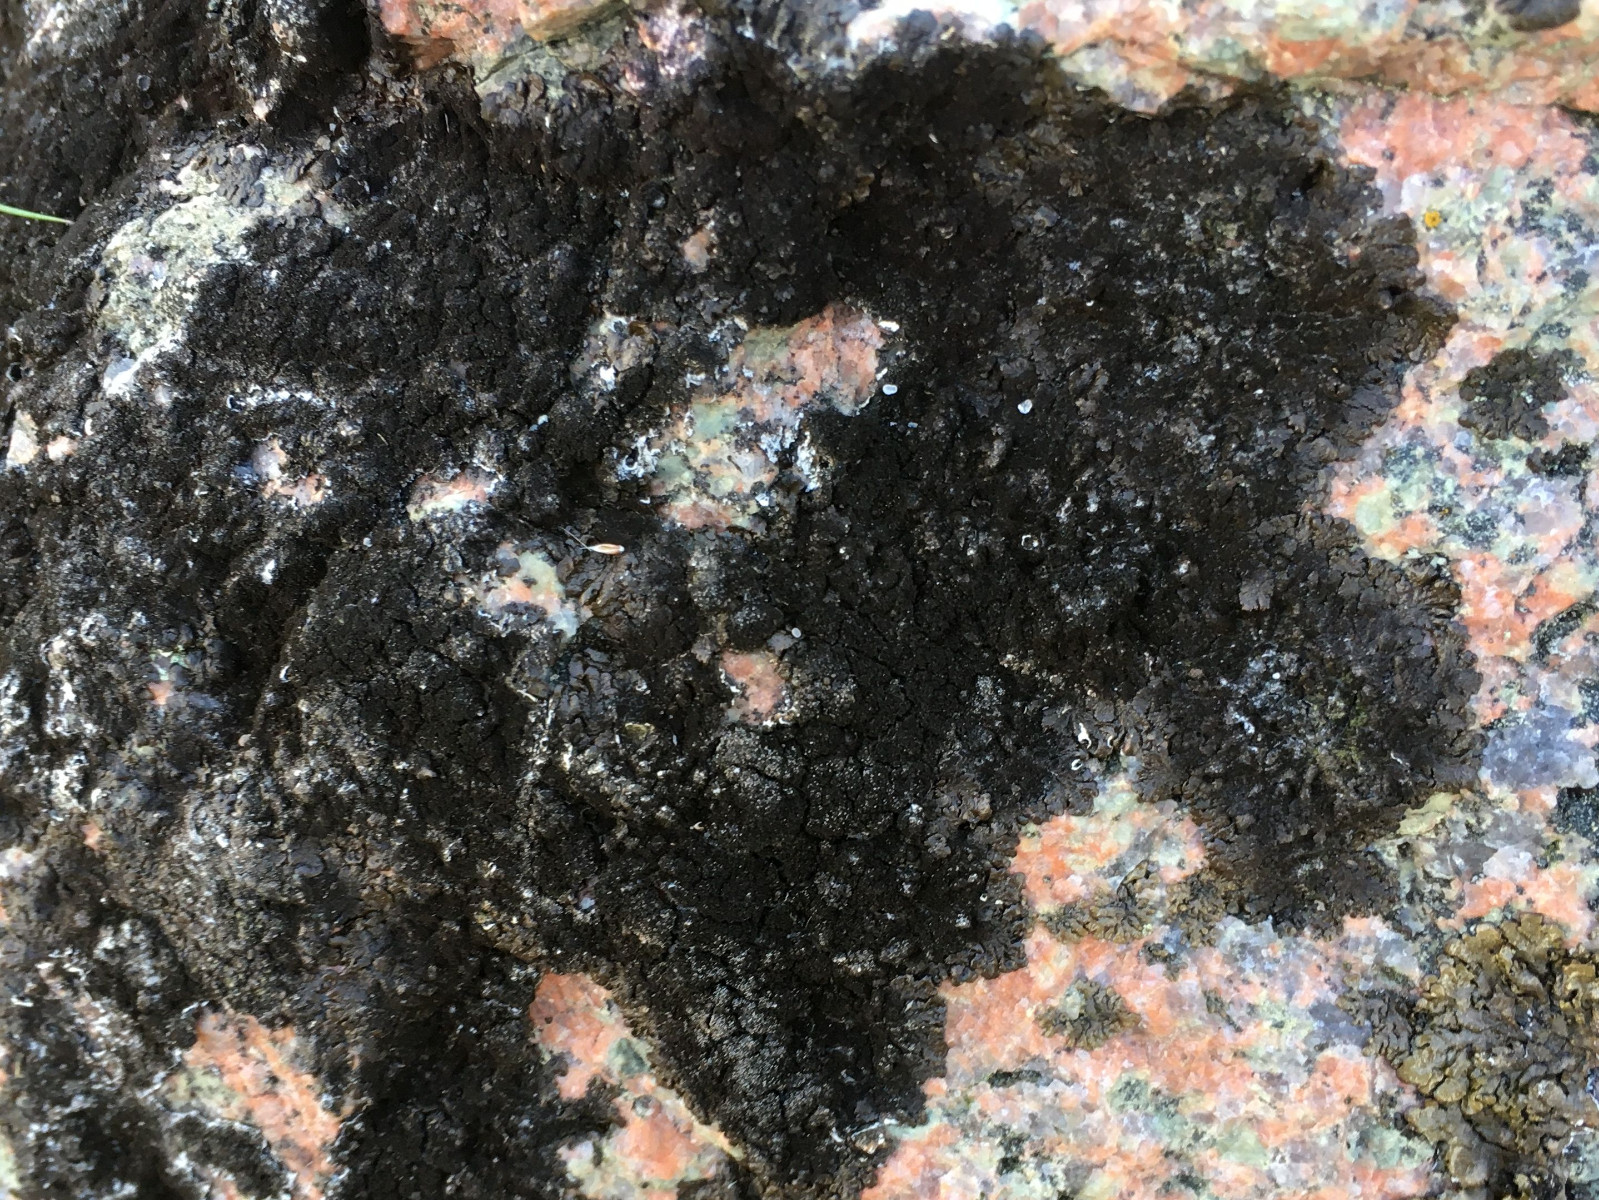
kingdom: Fungi
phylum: Ascomycota
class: Lecanoromycetes
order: Lecanorales
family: Parmeliaceae
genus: Melanelixia
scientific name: Melanelixia fuliginosa
